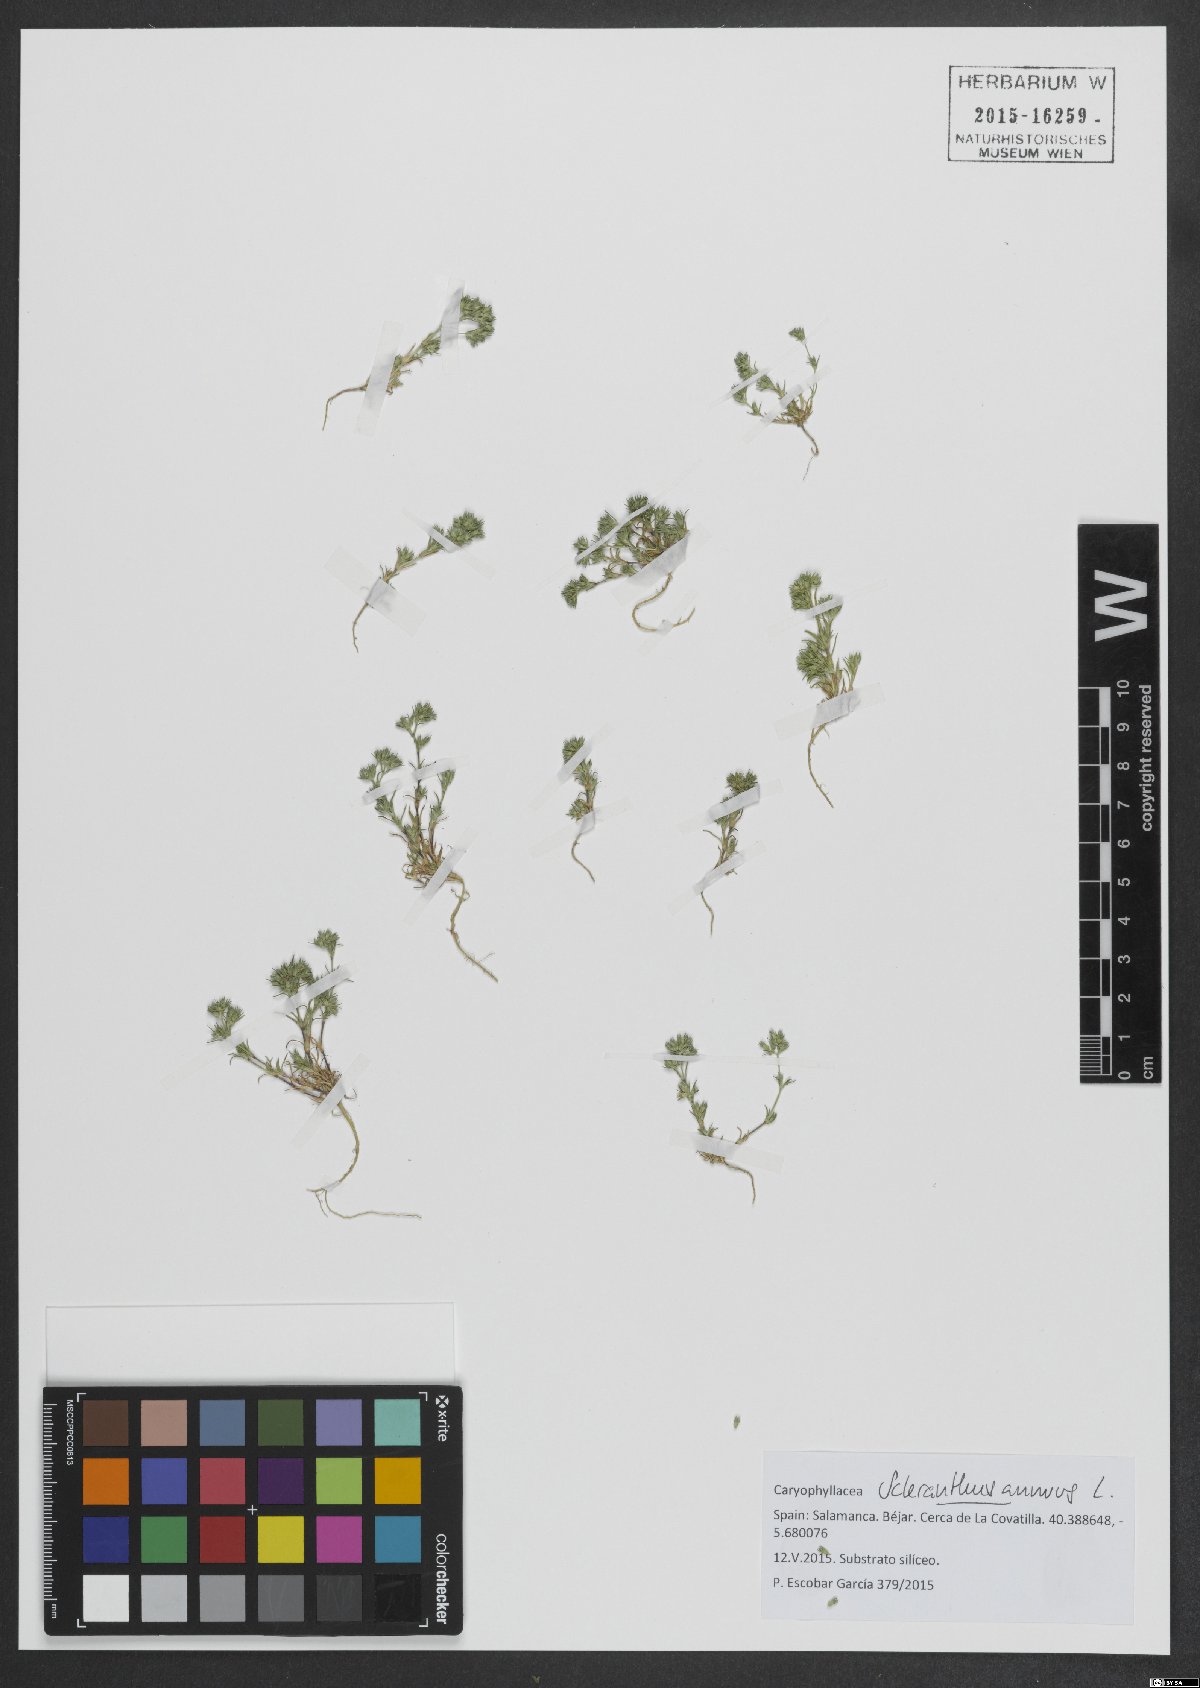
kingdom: Plantae
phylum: Tracheophyta
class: Magnoliopsida
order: Caryophyllales
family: Caryophyllaceae
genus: Scleranthus
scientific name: Scleranthus annuus
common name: Annual knawel
